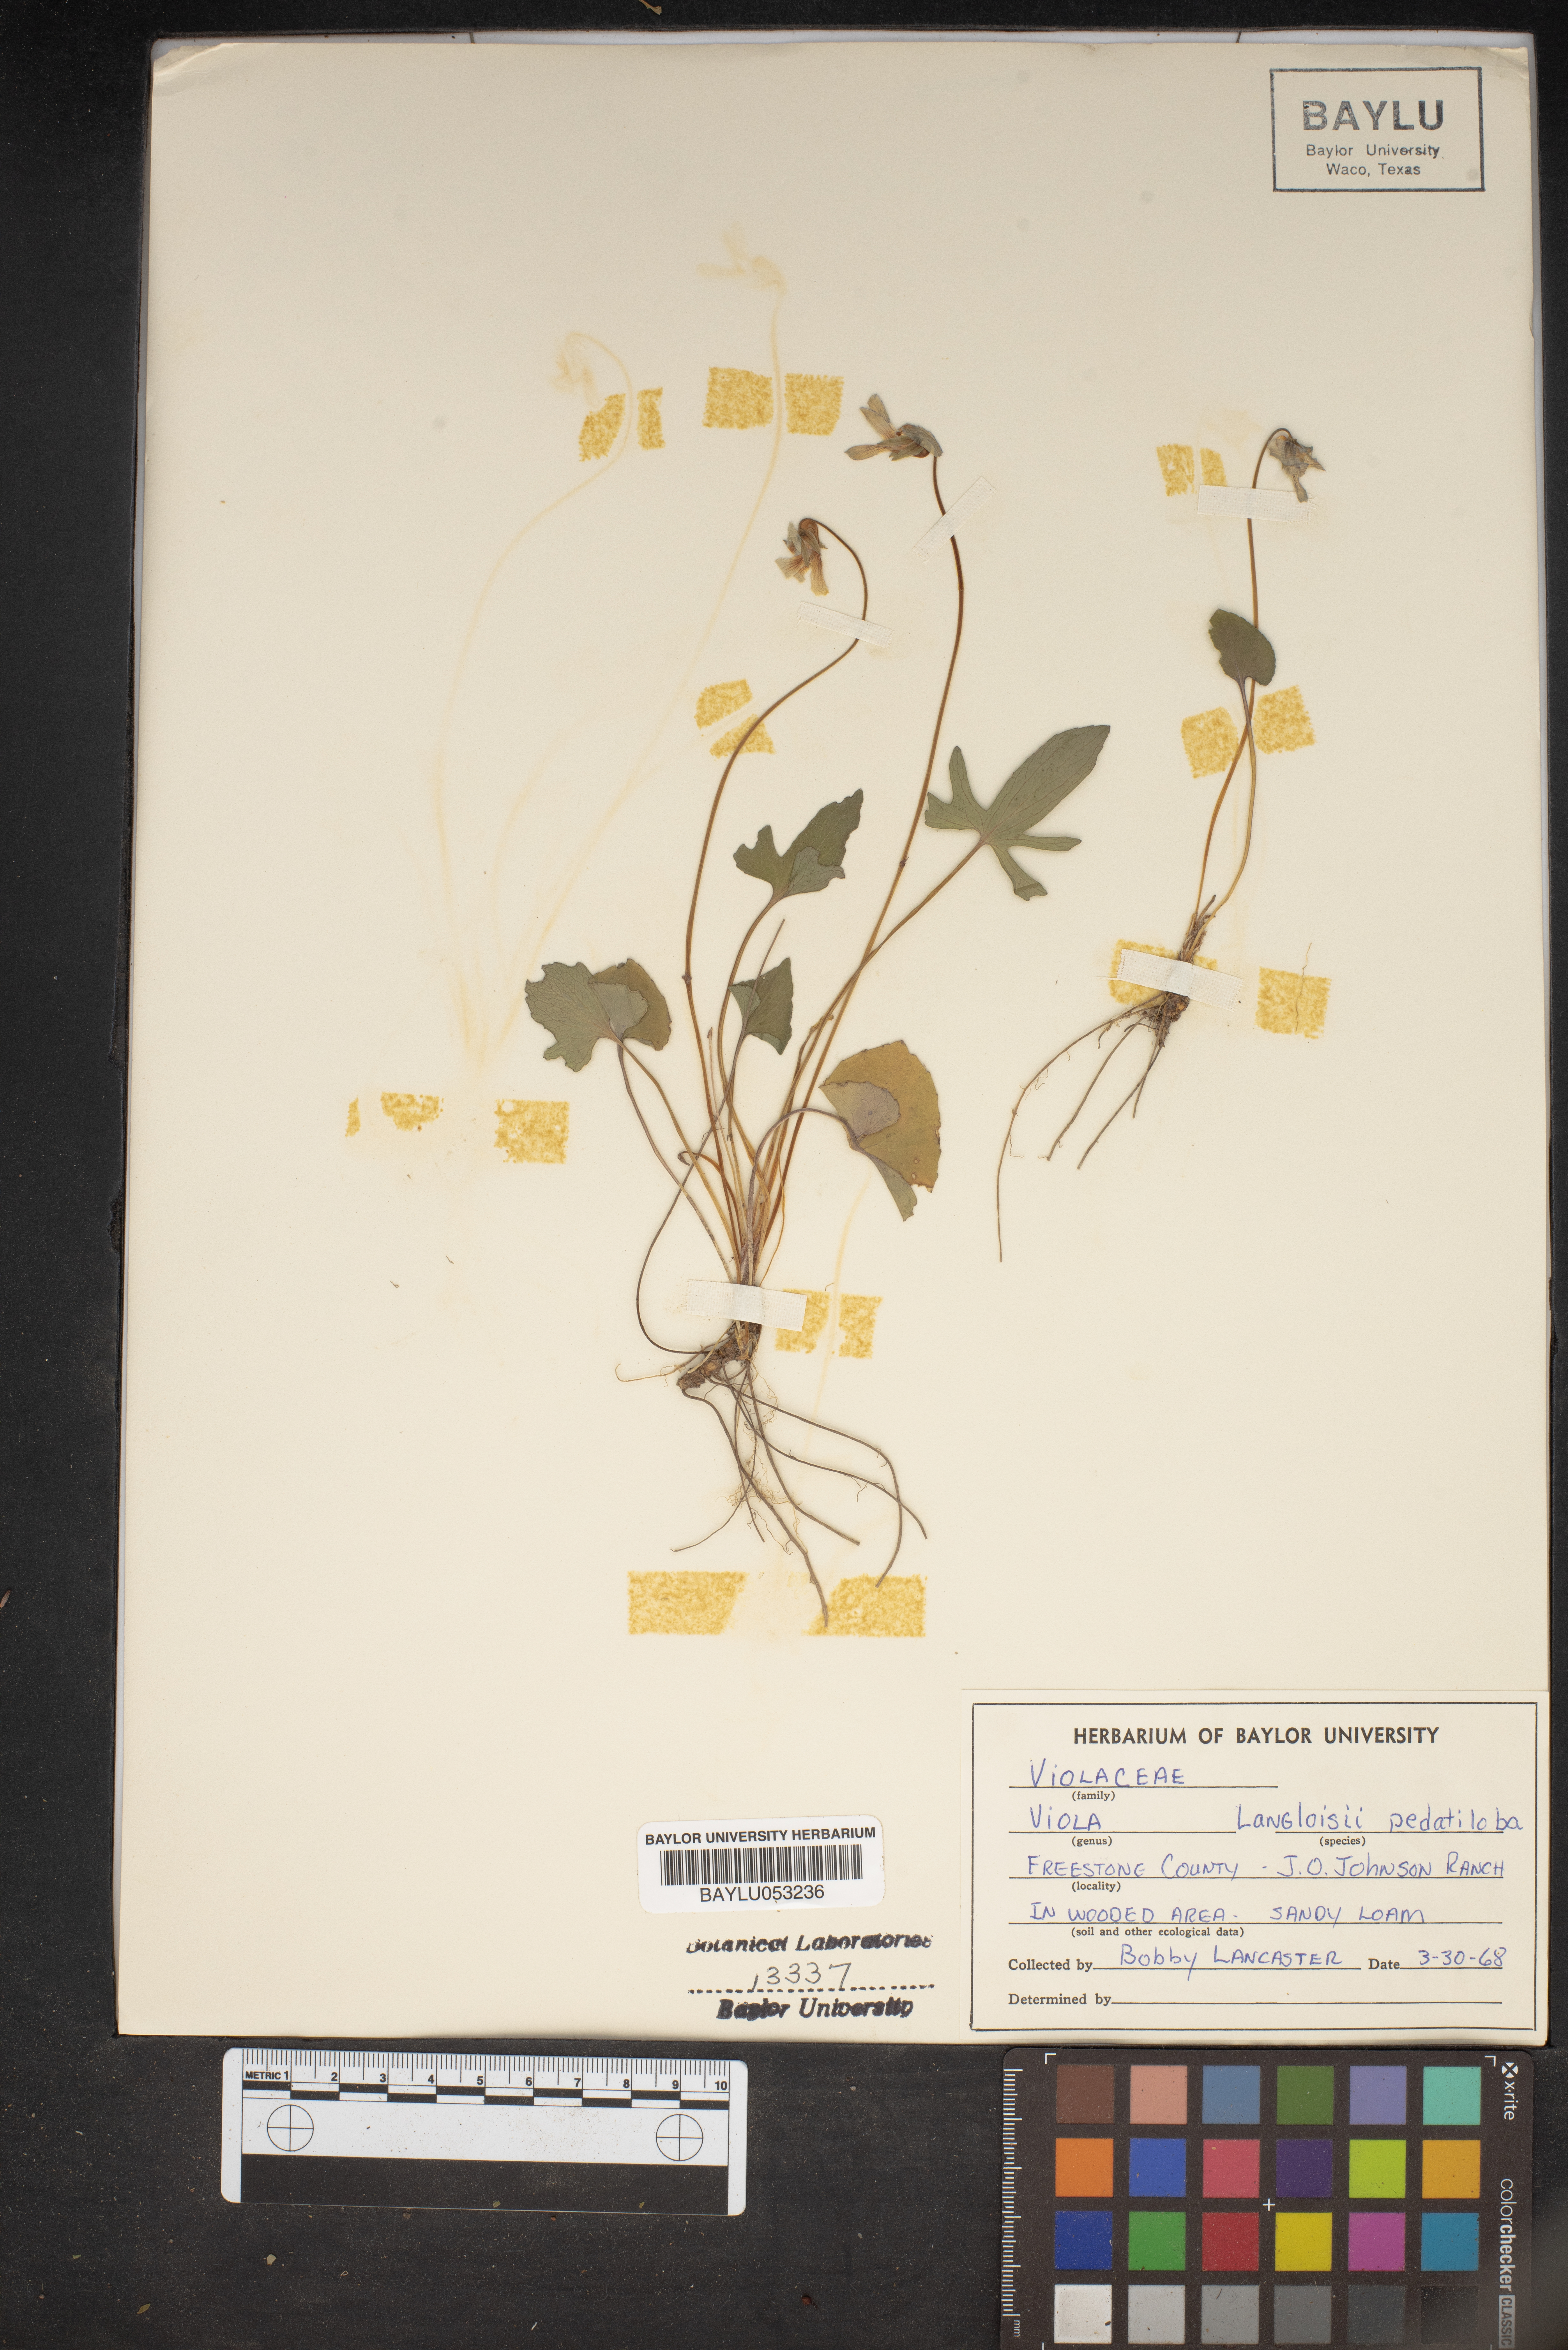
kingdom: Plantae
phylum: Tracheophyta
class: Magnoliopsida
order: Malpighiales
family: Violaceae
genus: Viola
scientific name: Viola langloisii
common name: Langlois' violet
